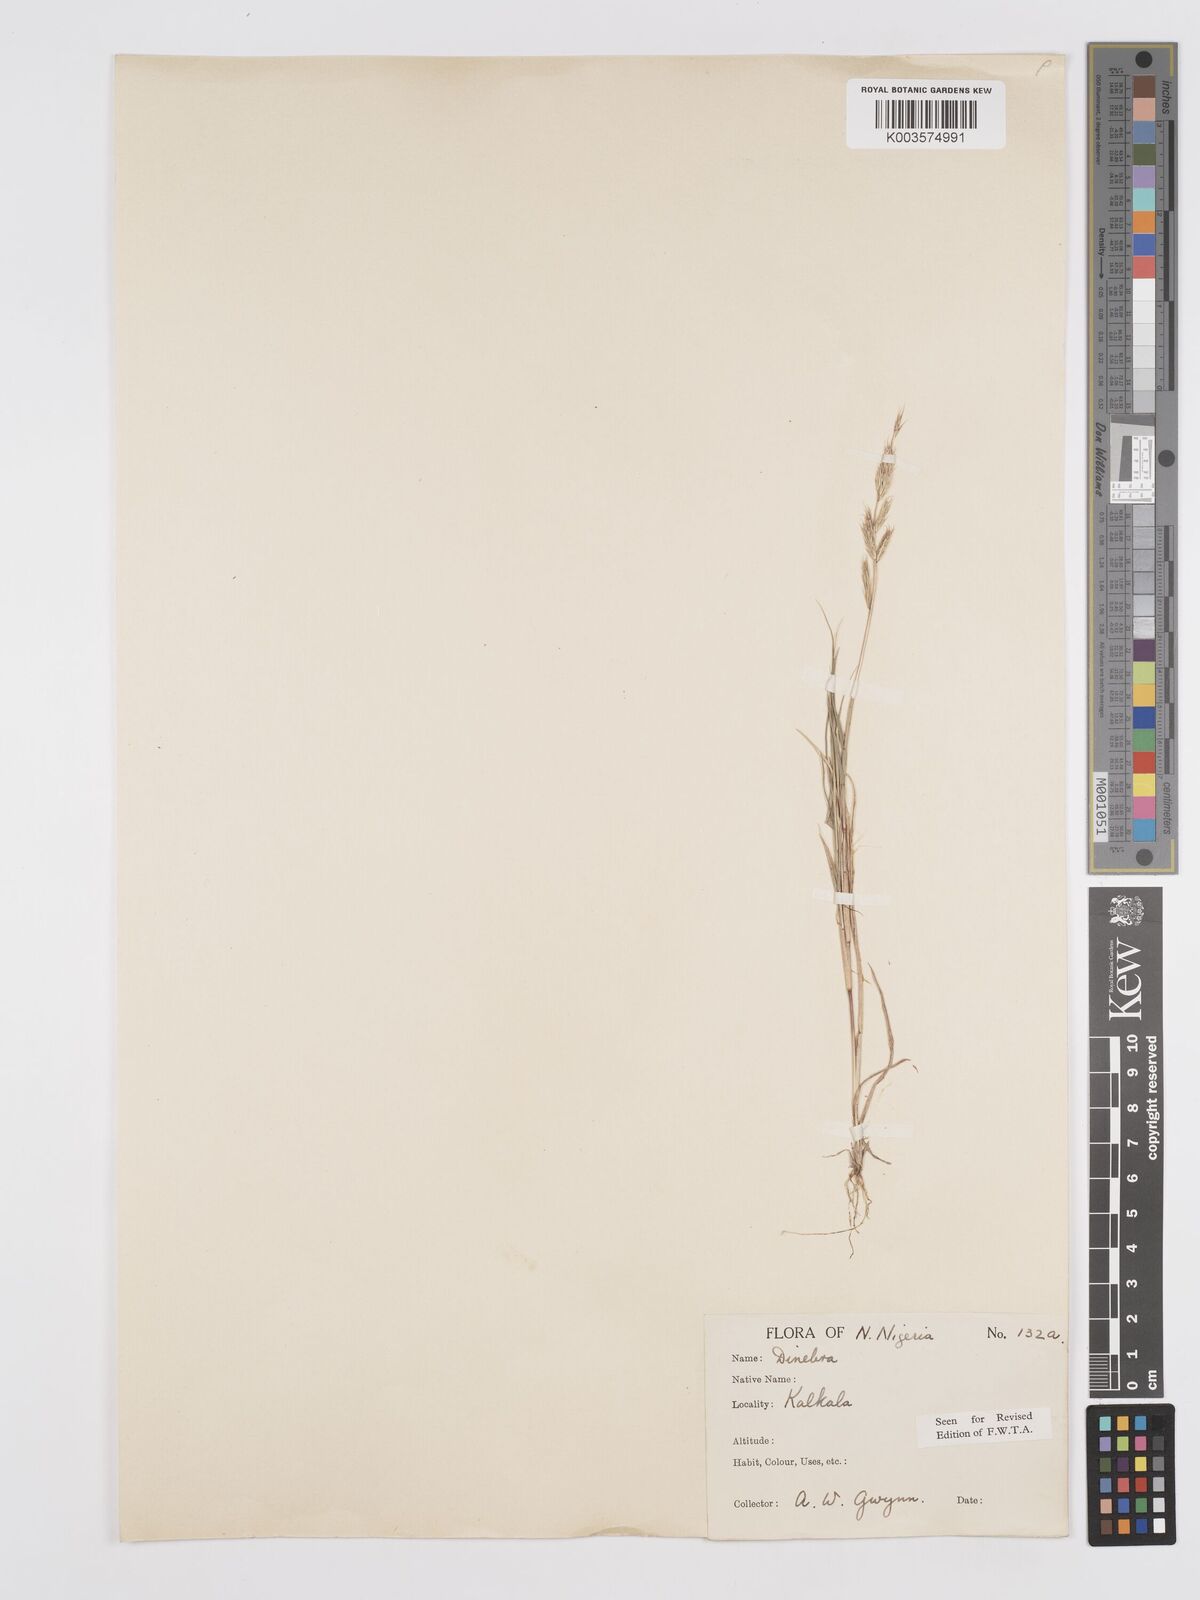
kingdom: Plantae
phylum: Tracheophyta
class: Liliopsida
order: Poales
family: Poaceae
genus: Dinebra
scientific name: Dinebra retroflexa
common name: Viper grass
